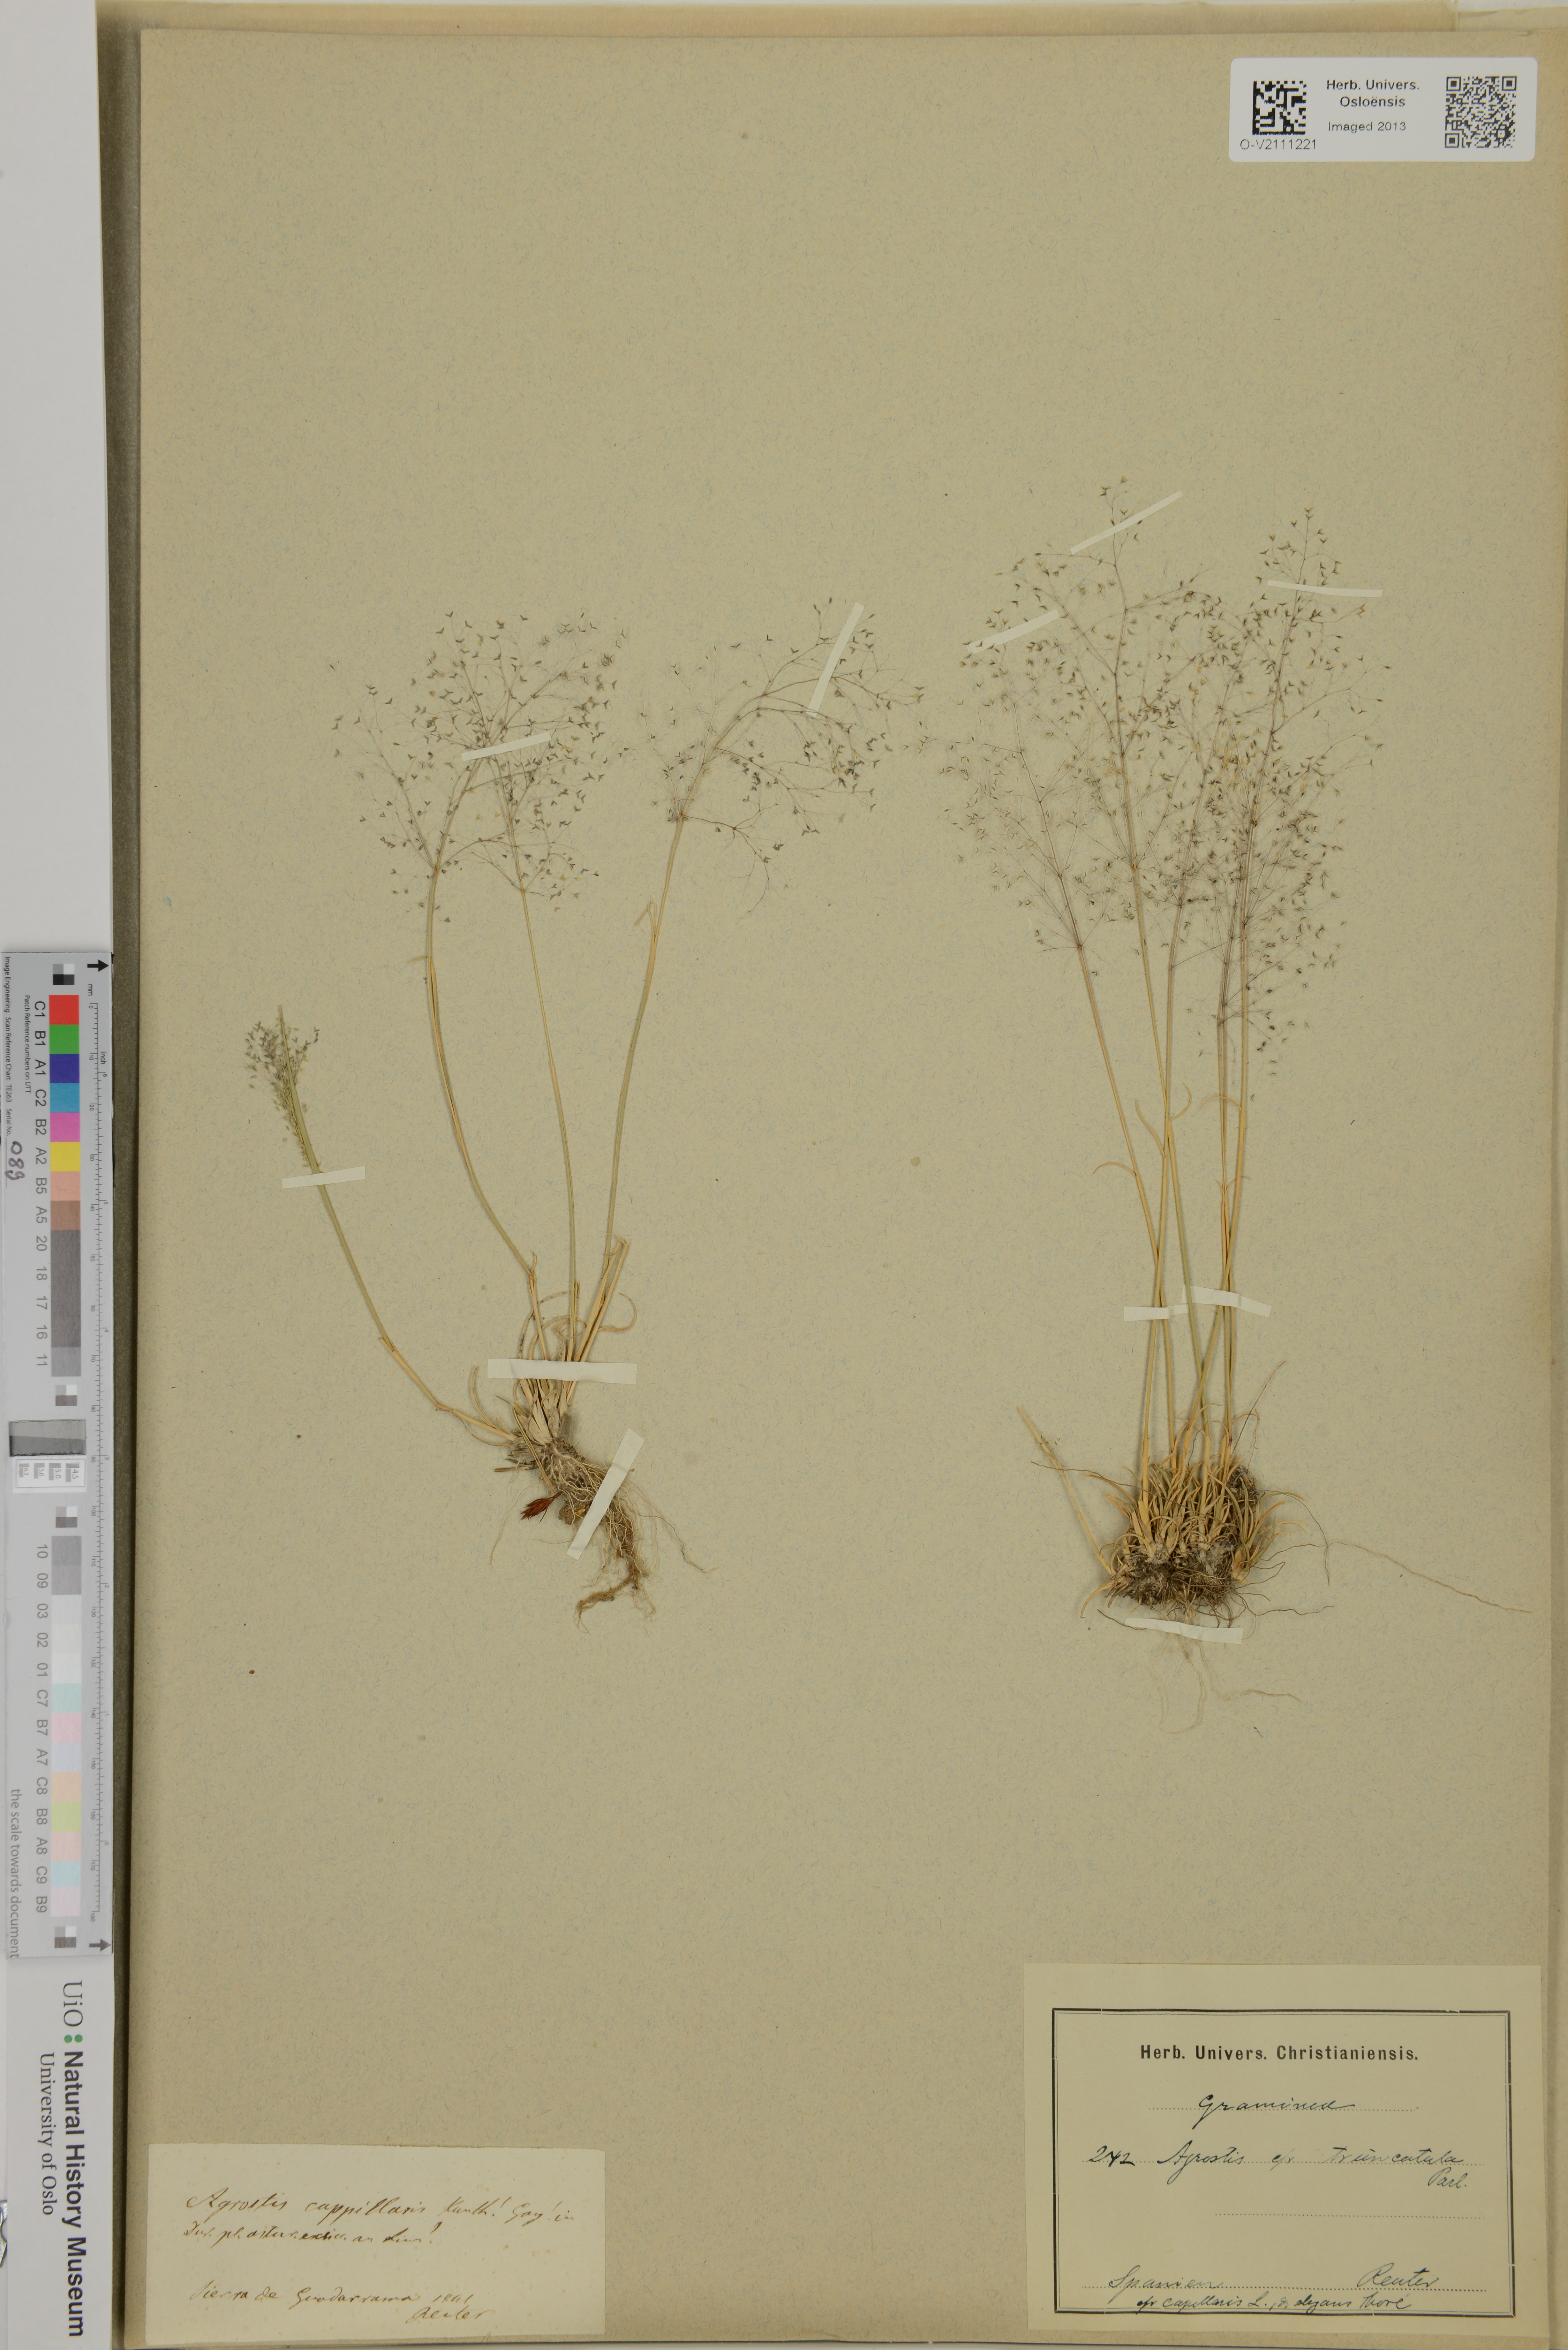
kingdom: Plantae
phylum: Tracheophyta
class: Liliopsida
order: Poales
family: Poaceae
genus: Agrostula
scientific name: Agrostula truncatula
